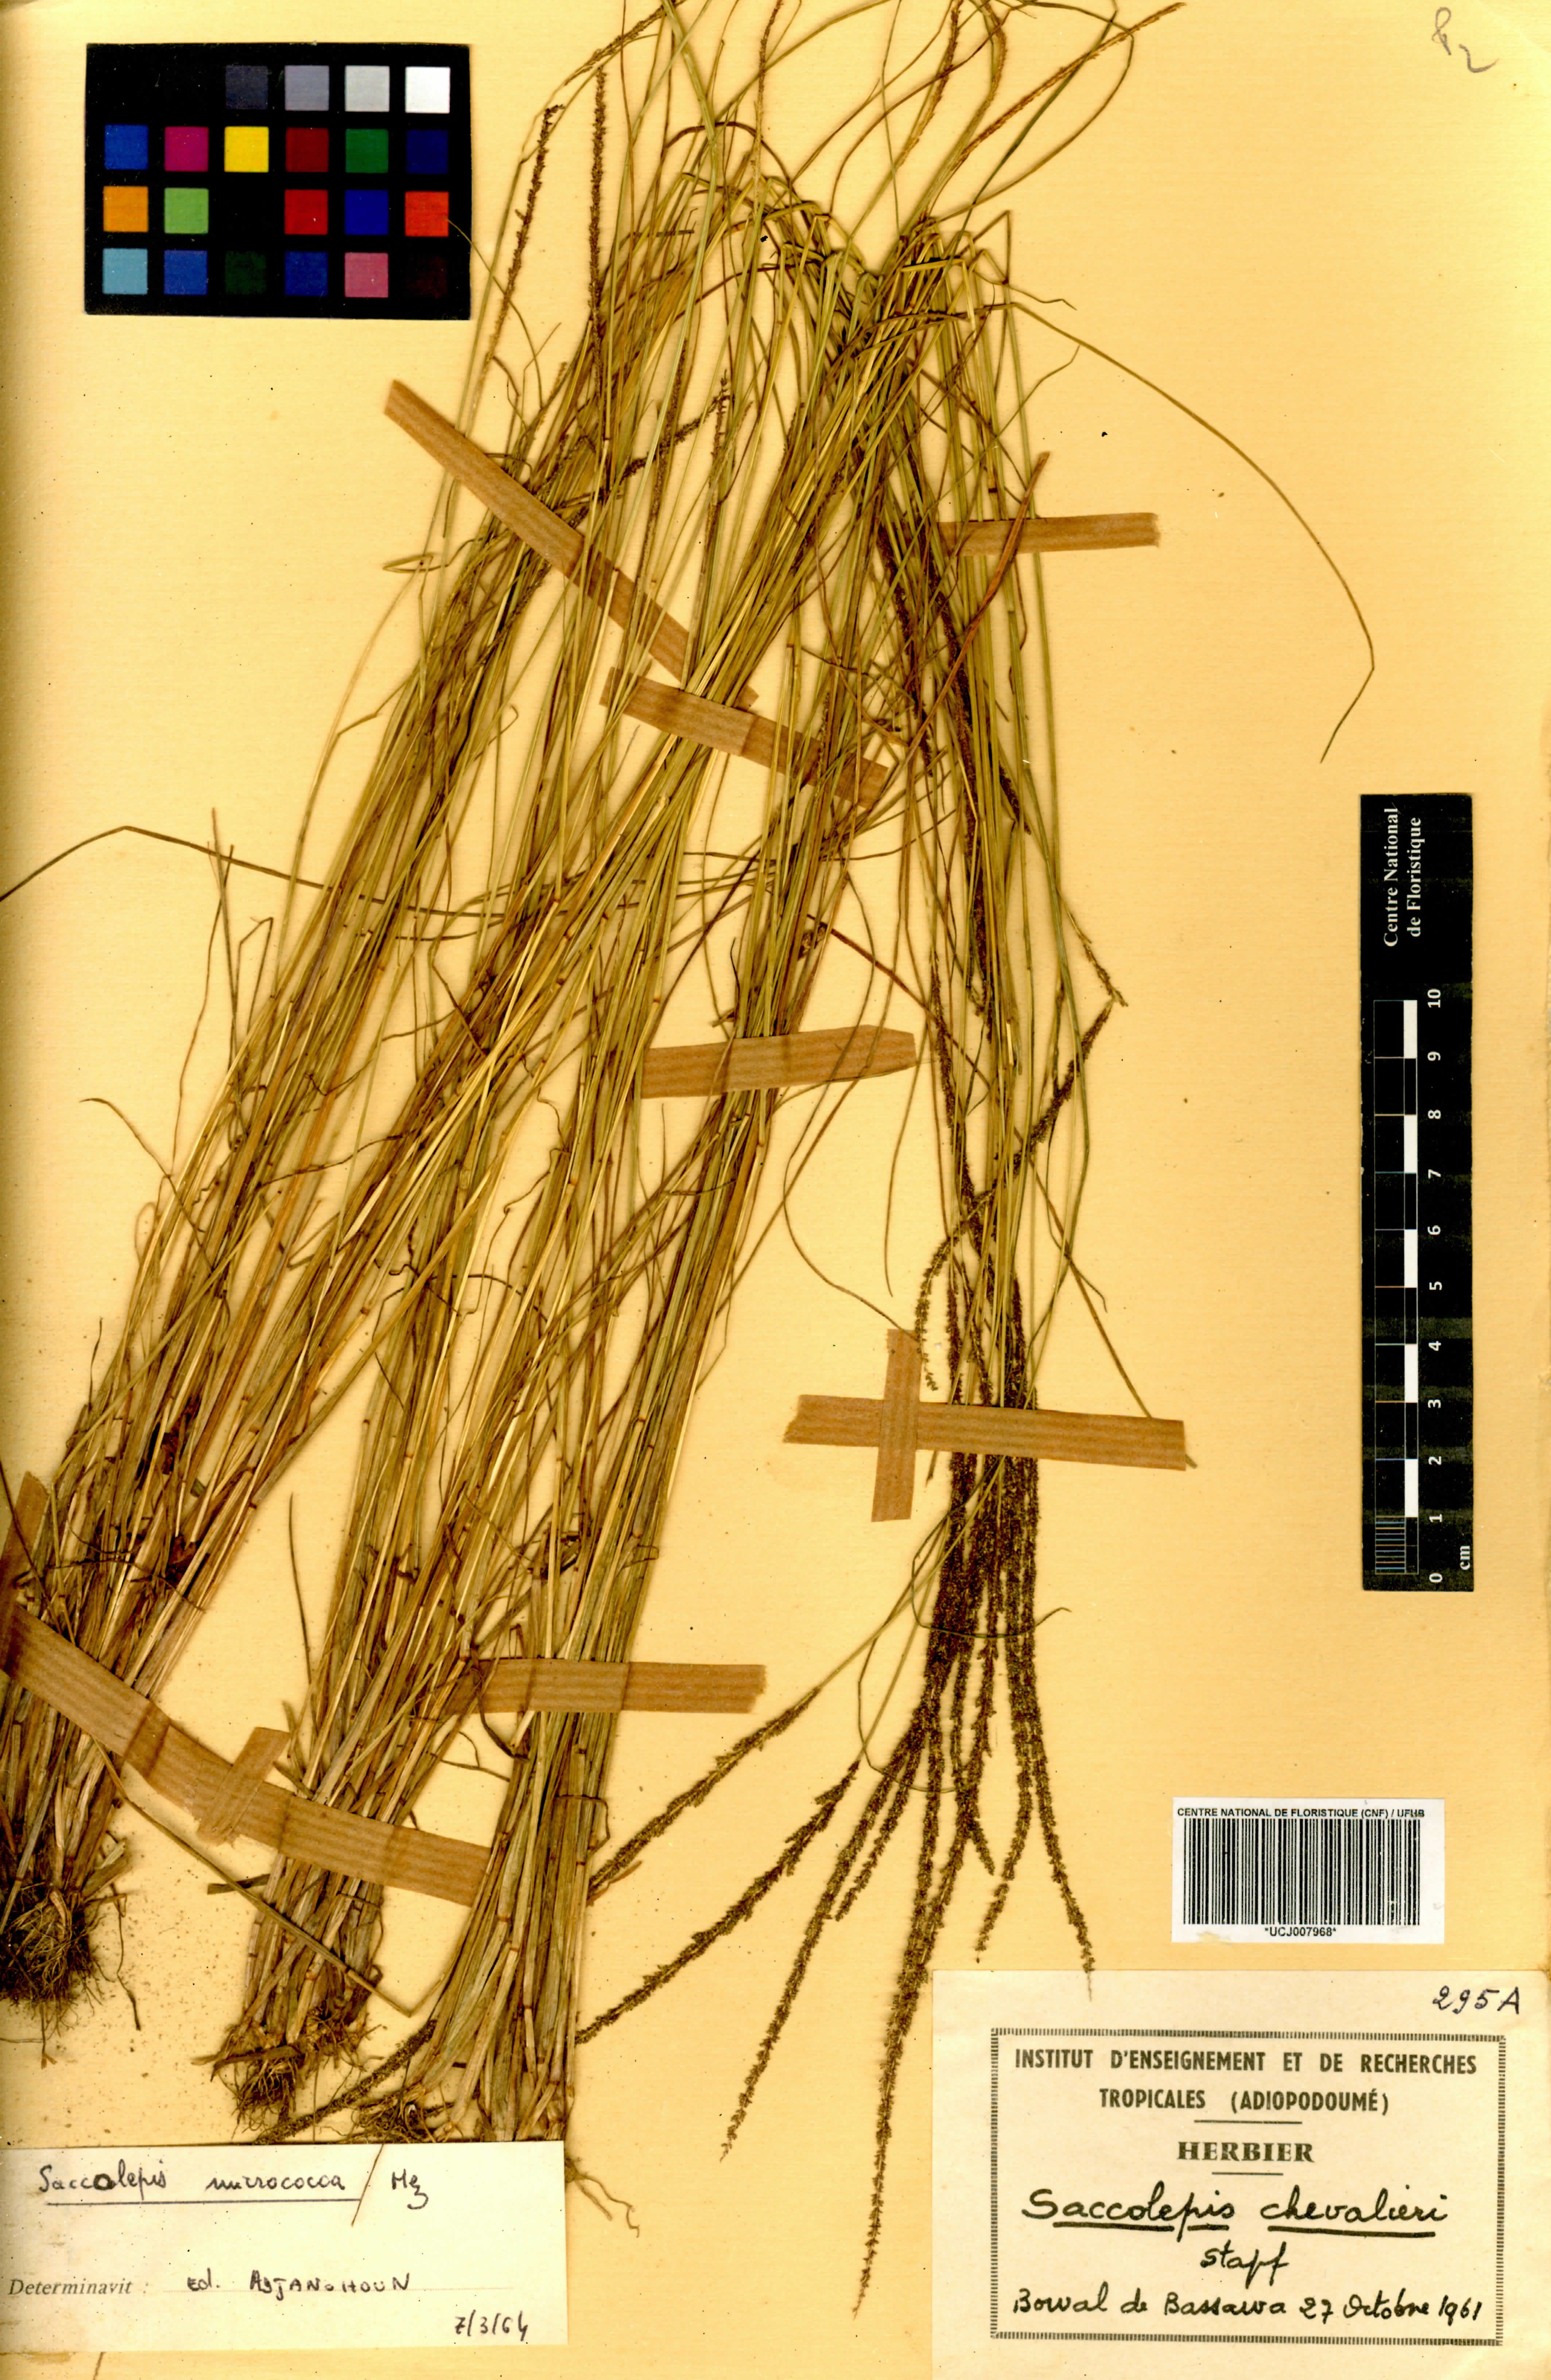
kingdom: Plantae
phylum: Tracheophyta
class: Liliopsida
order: Poales
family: Poaceae
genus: Sacciolepis
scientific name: Sacciolepis chevalieri
